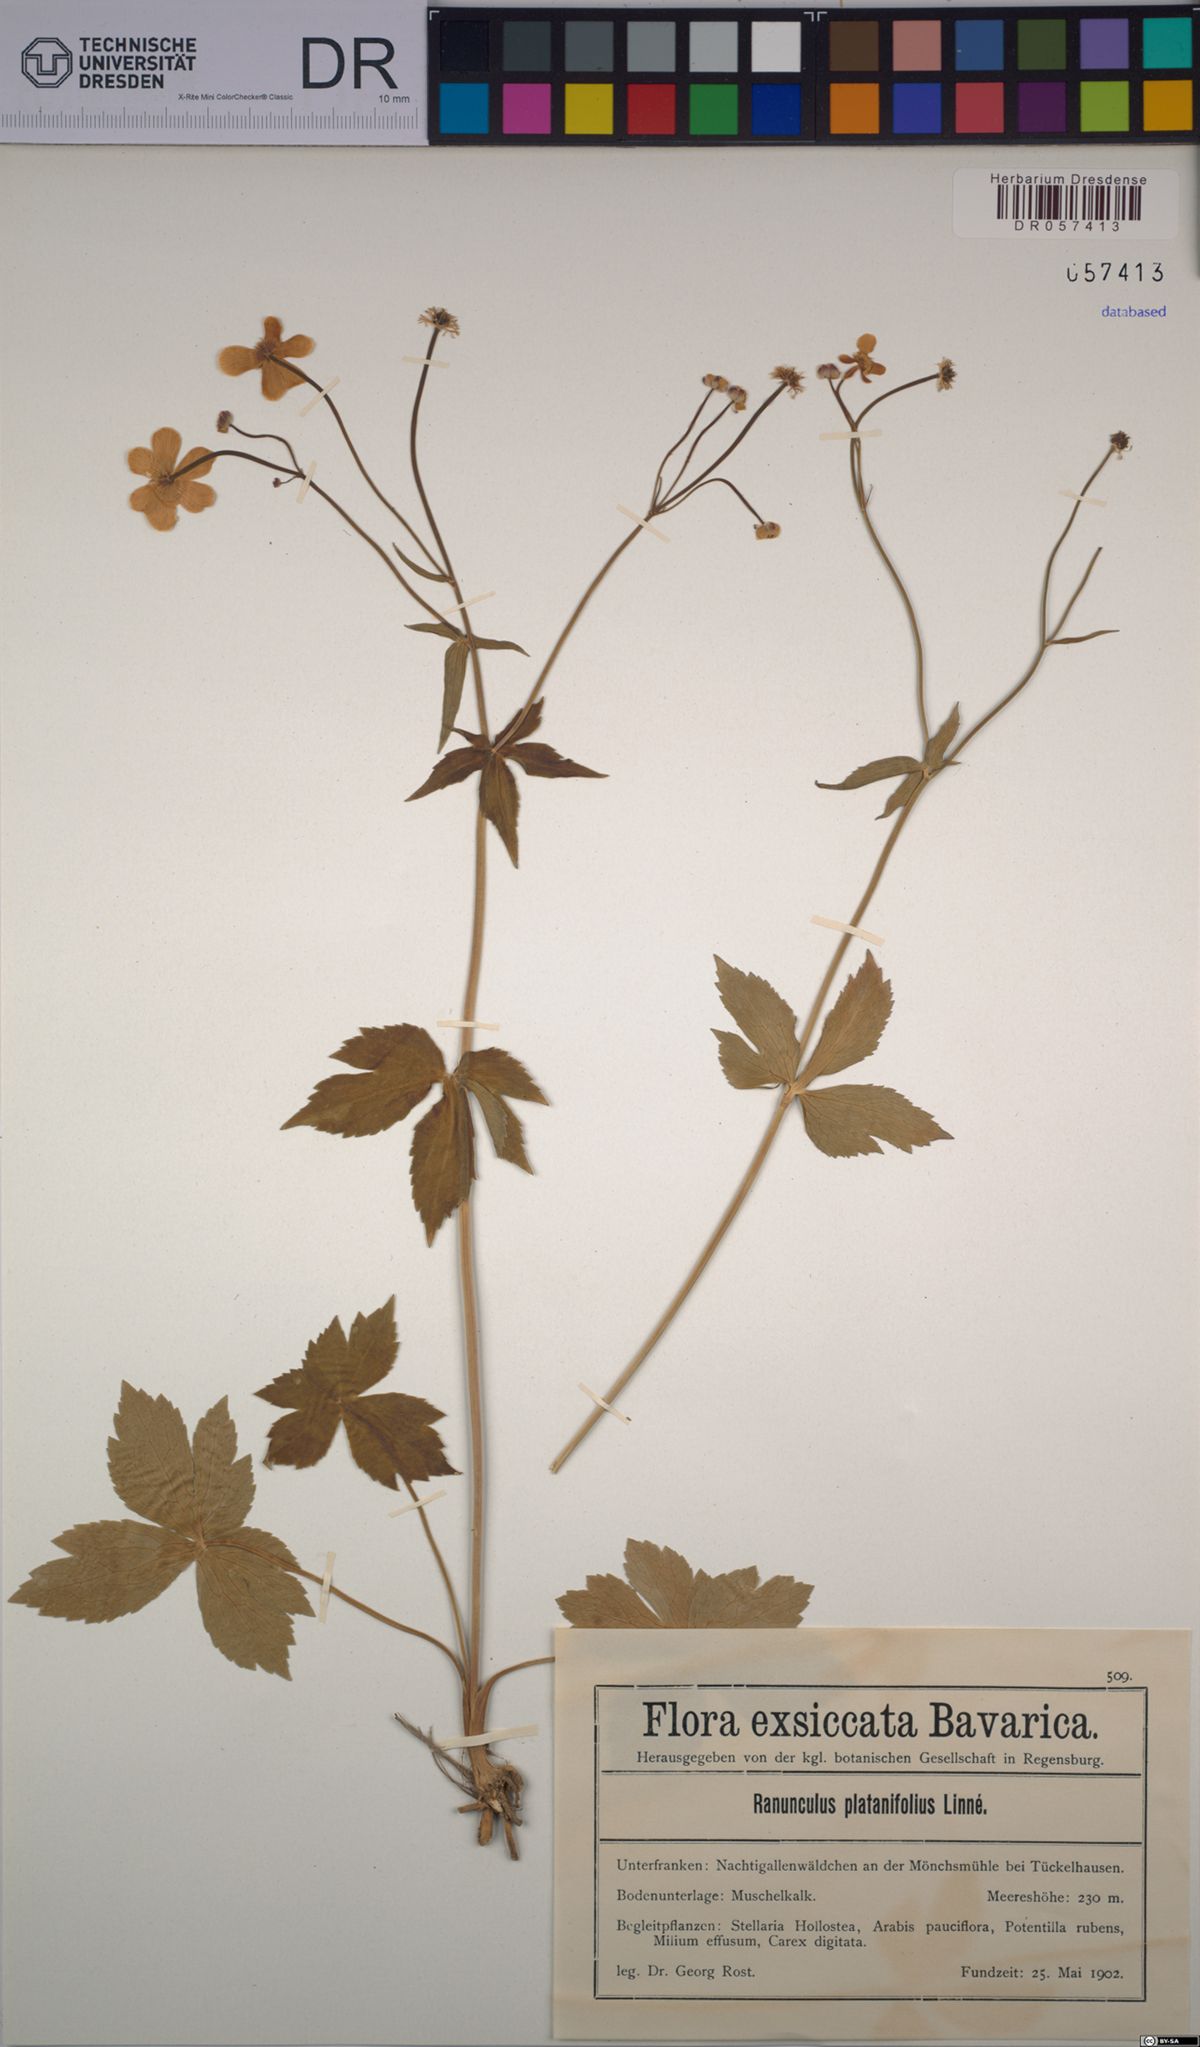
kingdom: Plantae
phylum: Tracheophyta
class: Magnoliopsida
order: Ranunculales
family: Ranunculaceae
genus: Ranunculus
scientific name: Ranunculus platanifolius
